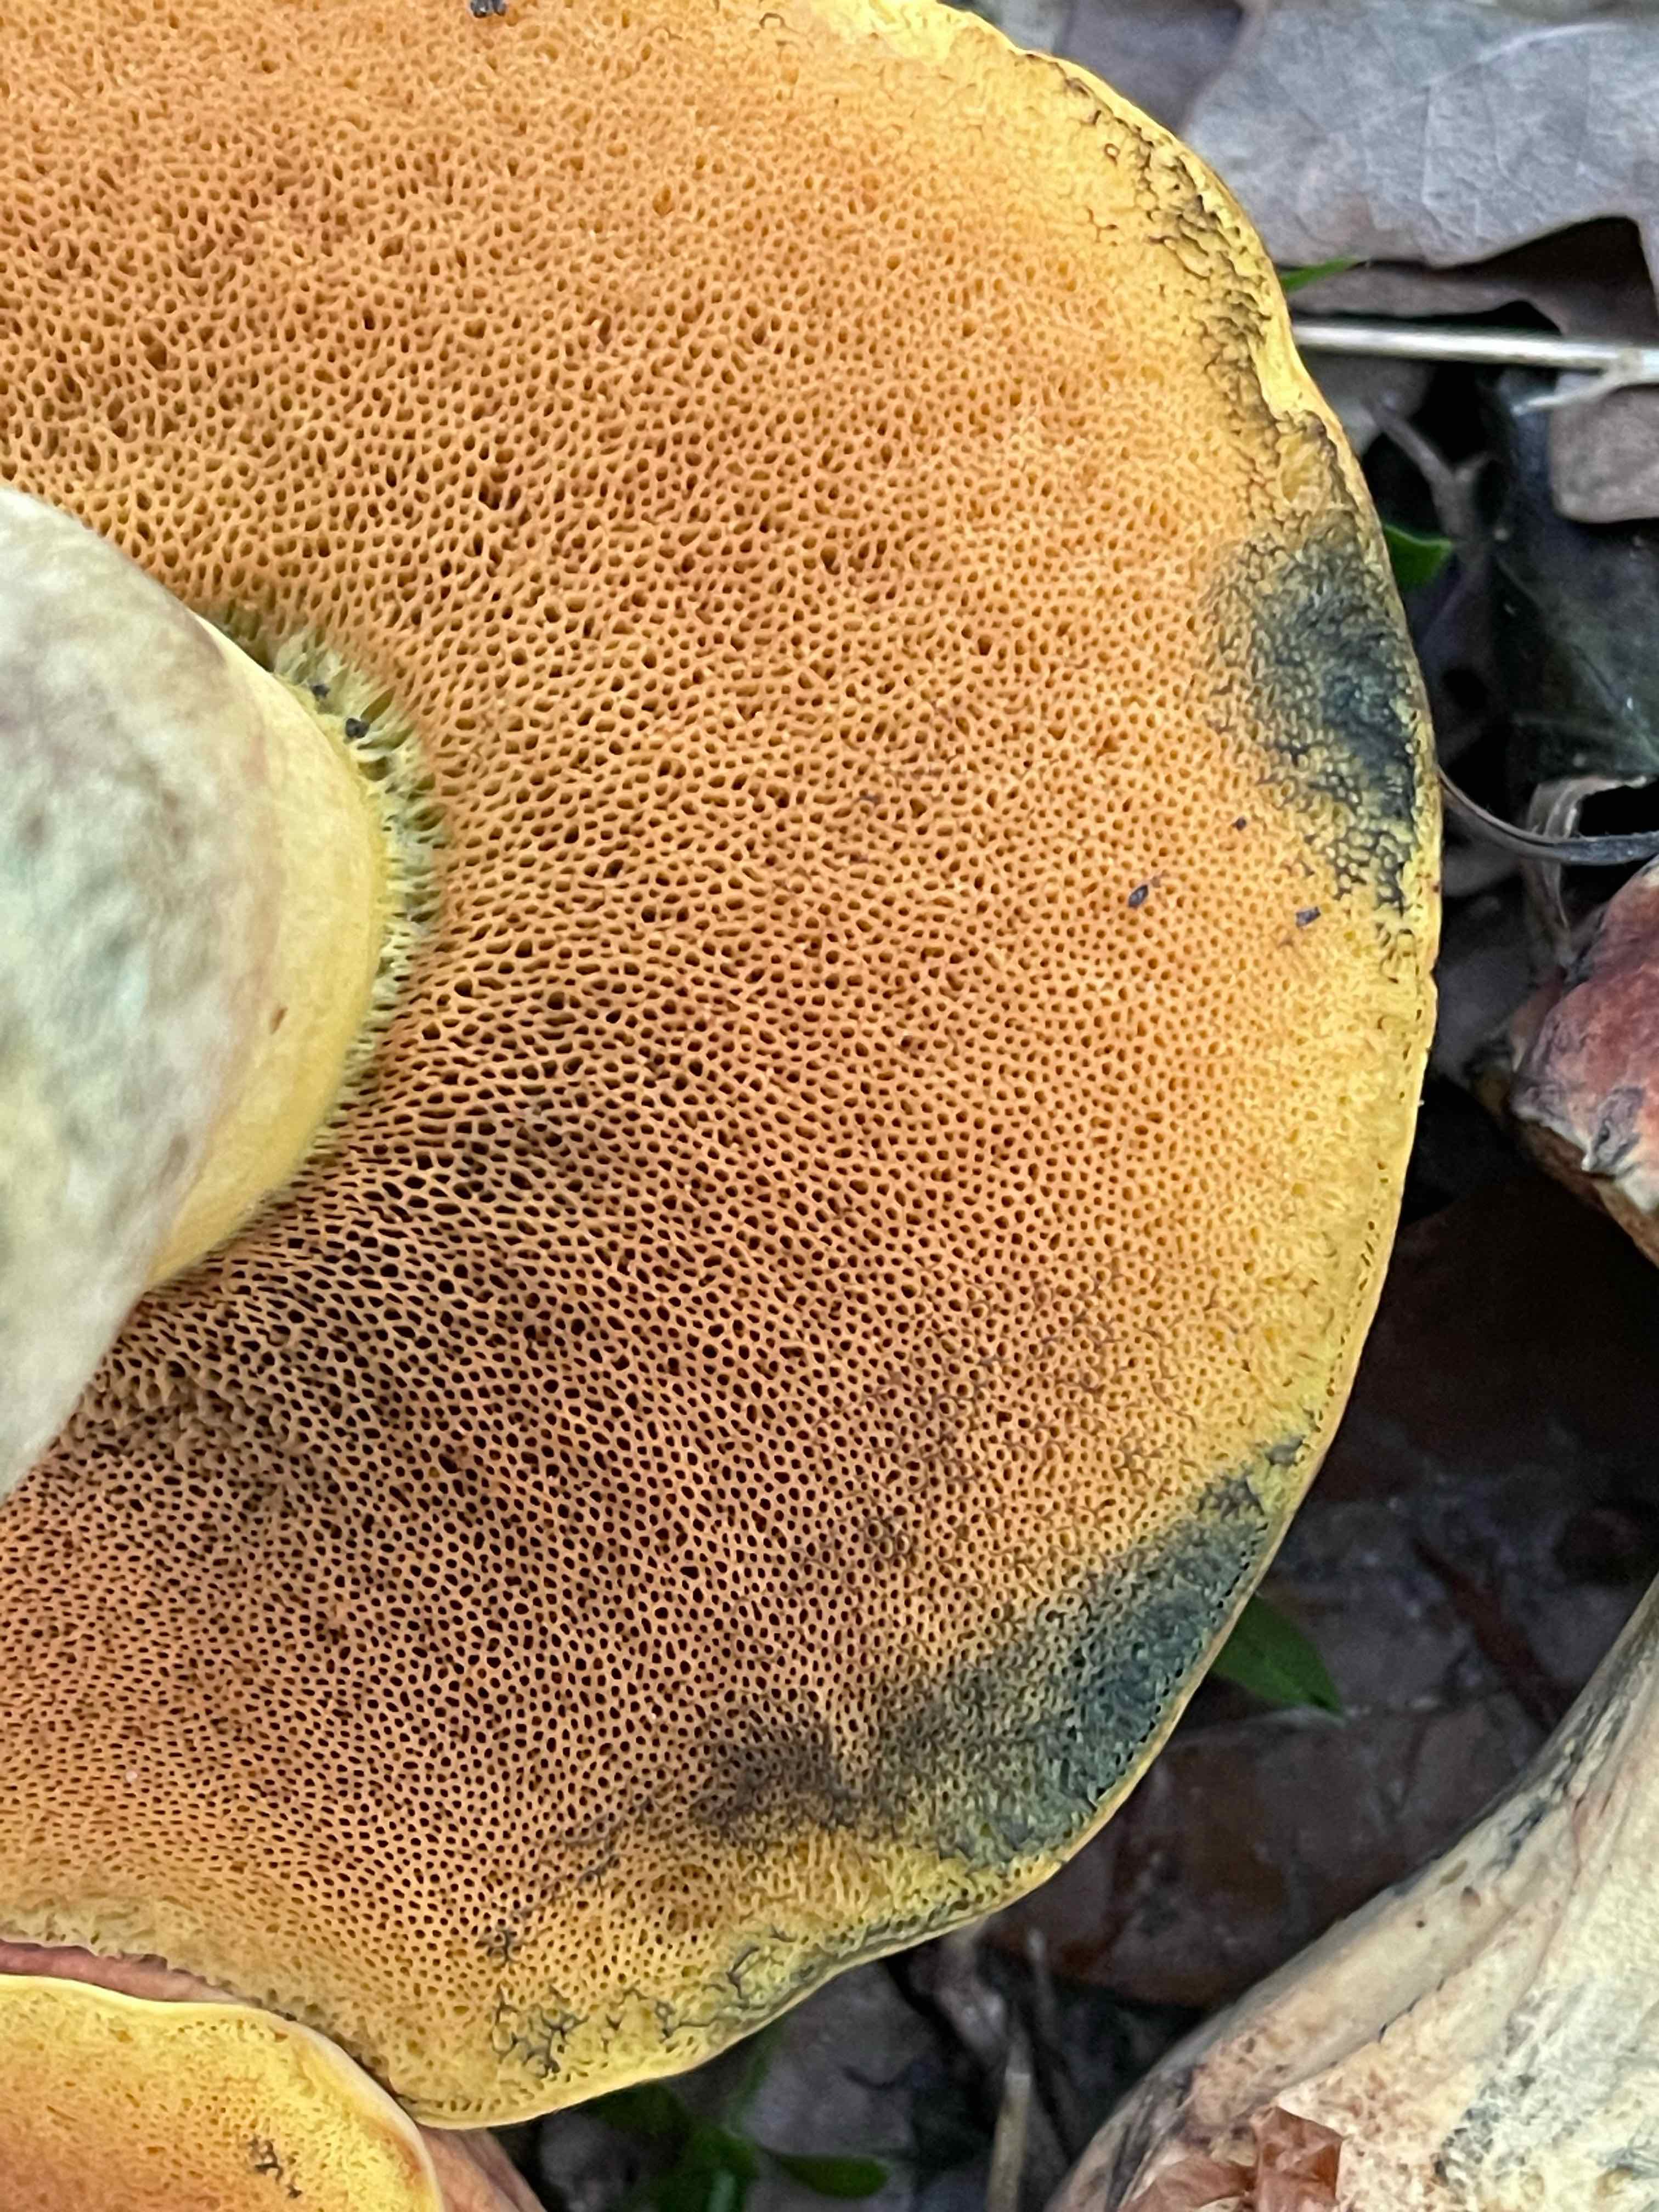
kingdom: Fungi
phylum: Basidiomycota
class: Agaricomycetes
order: Boletales
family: Boletaceae
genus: Suillellus
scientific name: Suillellus queletii
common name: glatstokket indigorørhat
